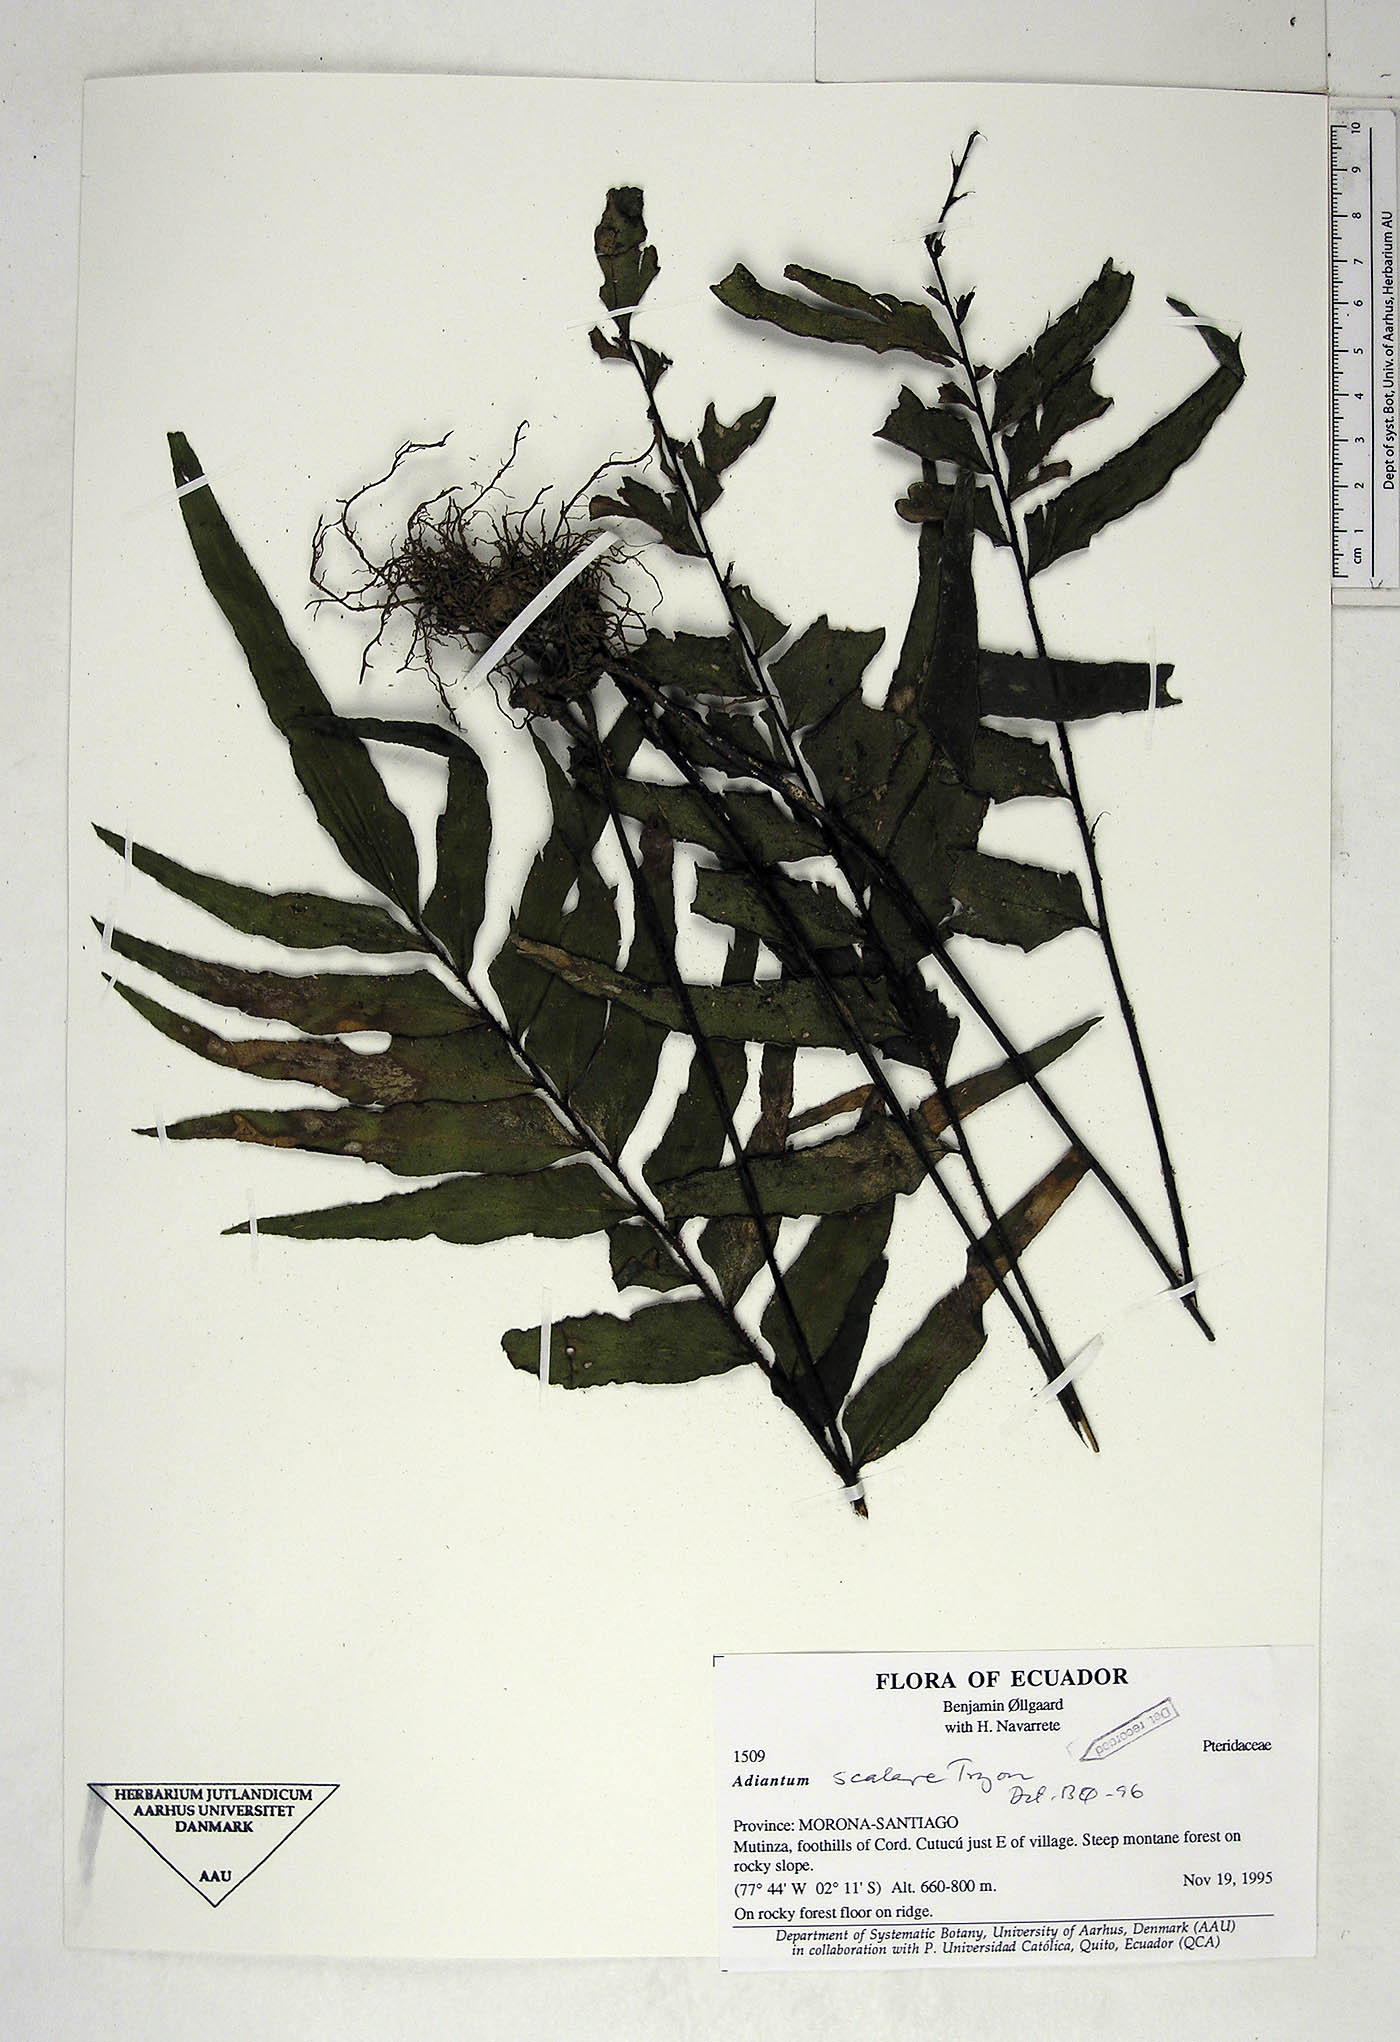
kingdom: Plantae
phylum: Tracheophyta
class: Polypodiopsida
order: Polypodiales
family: Pteridaceae
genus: Adiantum
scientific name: Adiantum scalare
